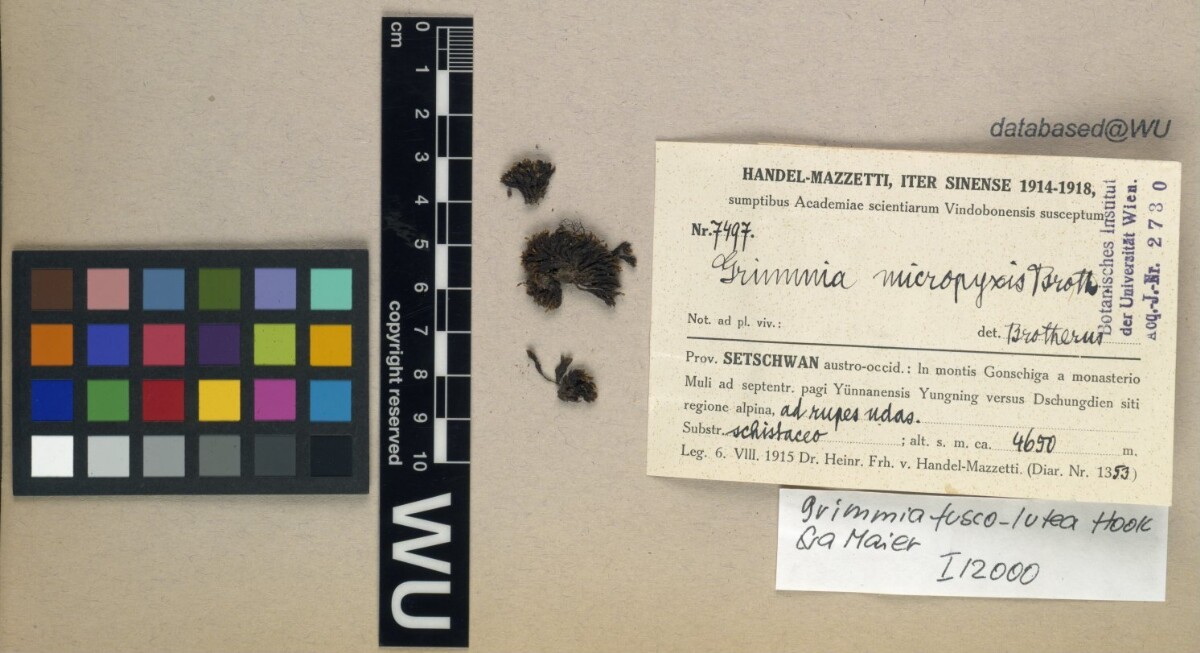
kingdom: Plantae
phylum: Bryophyta
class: Bryopsida
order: Grimmiales
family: Grimmiaceae
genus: Grimmia
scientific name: Grimmia fuscolutea
